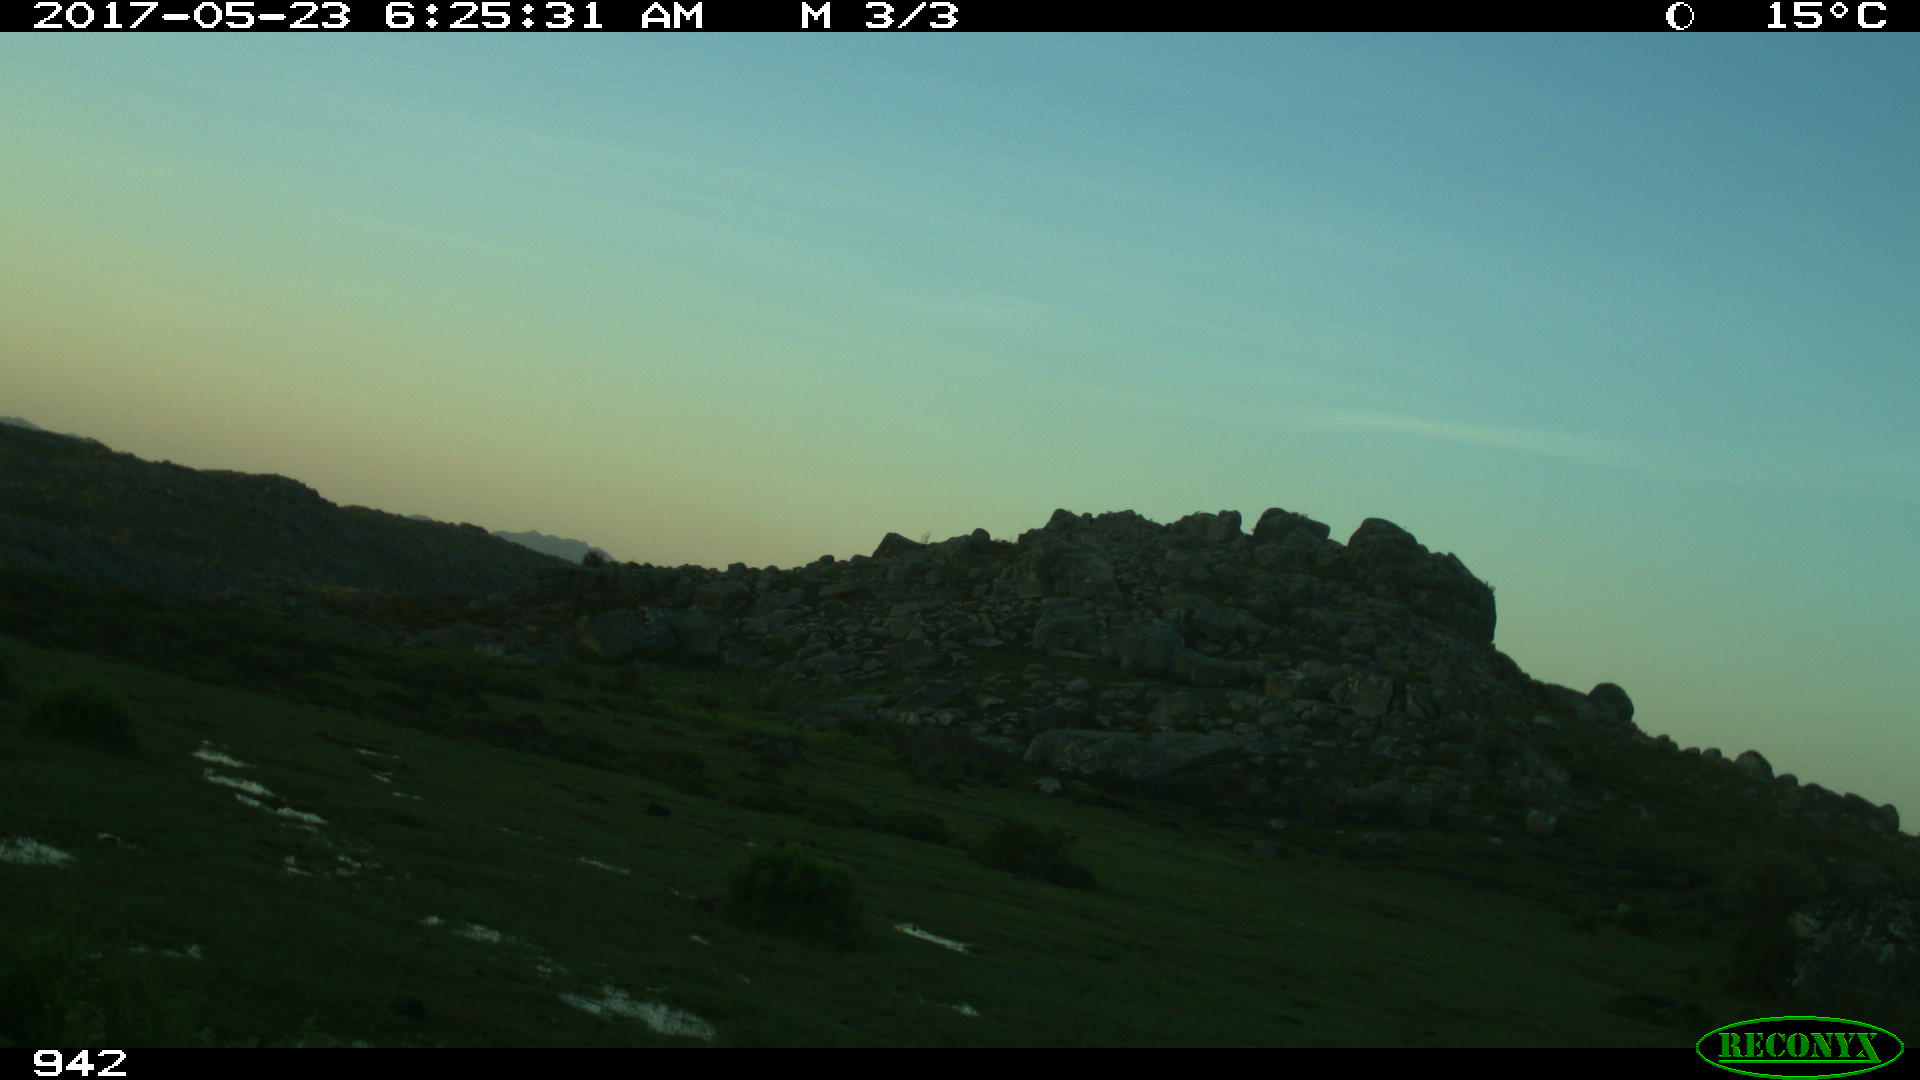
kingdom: Animalia
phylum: Chordata
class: Mammalia
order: Perissodactyla
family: Equidae
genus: Equus
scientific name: Equus caballus
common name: Horse
